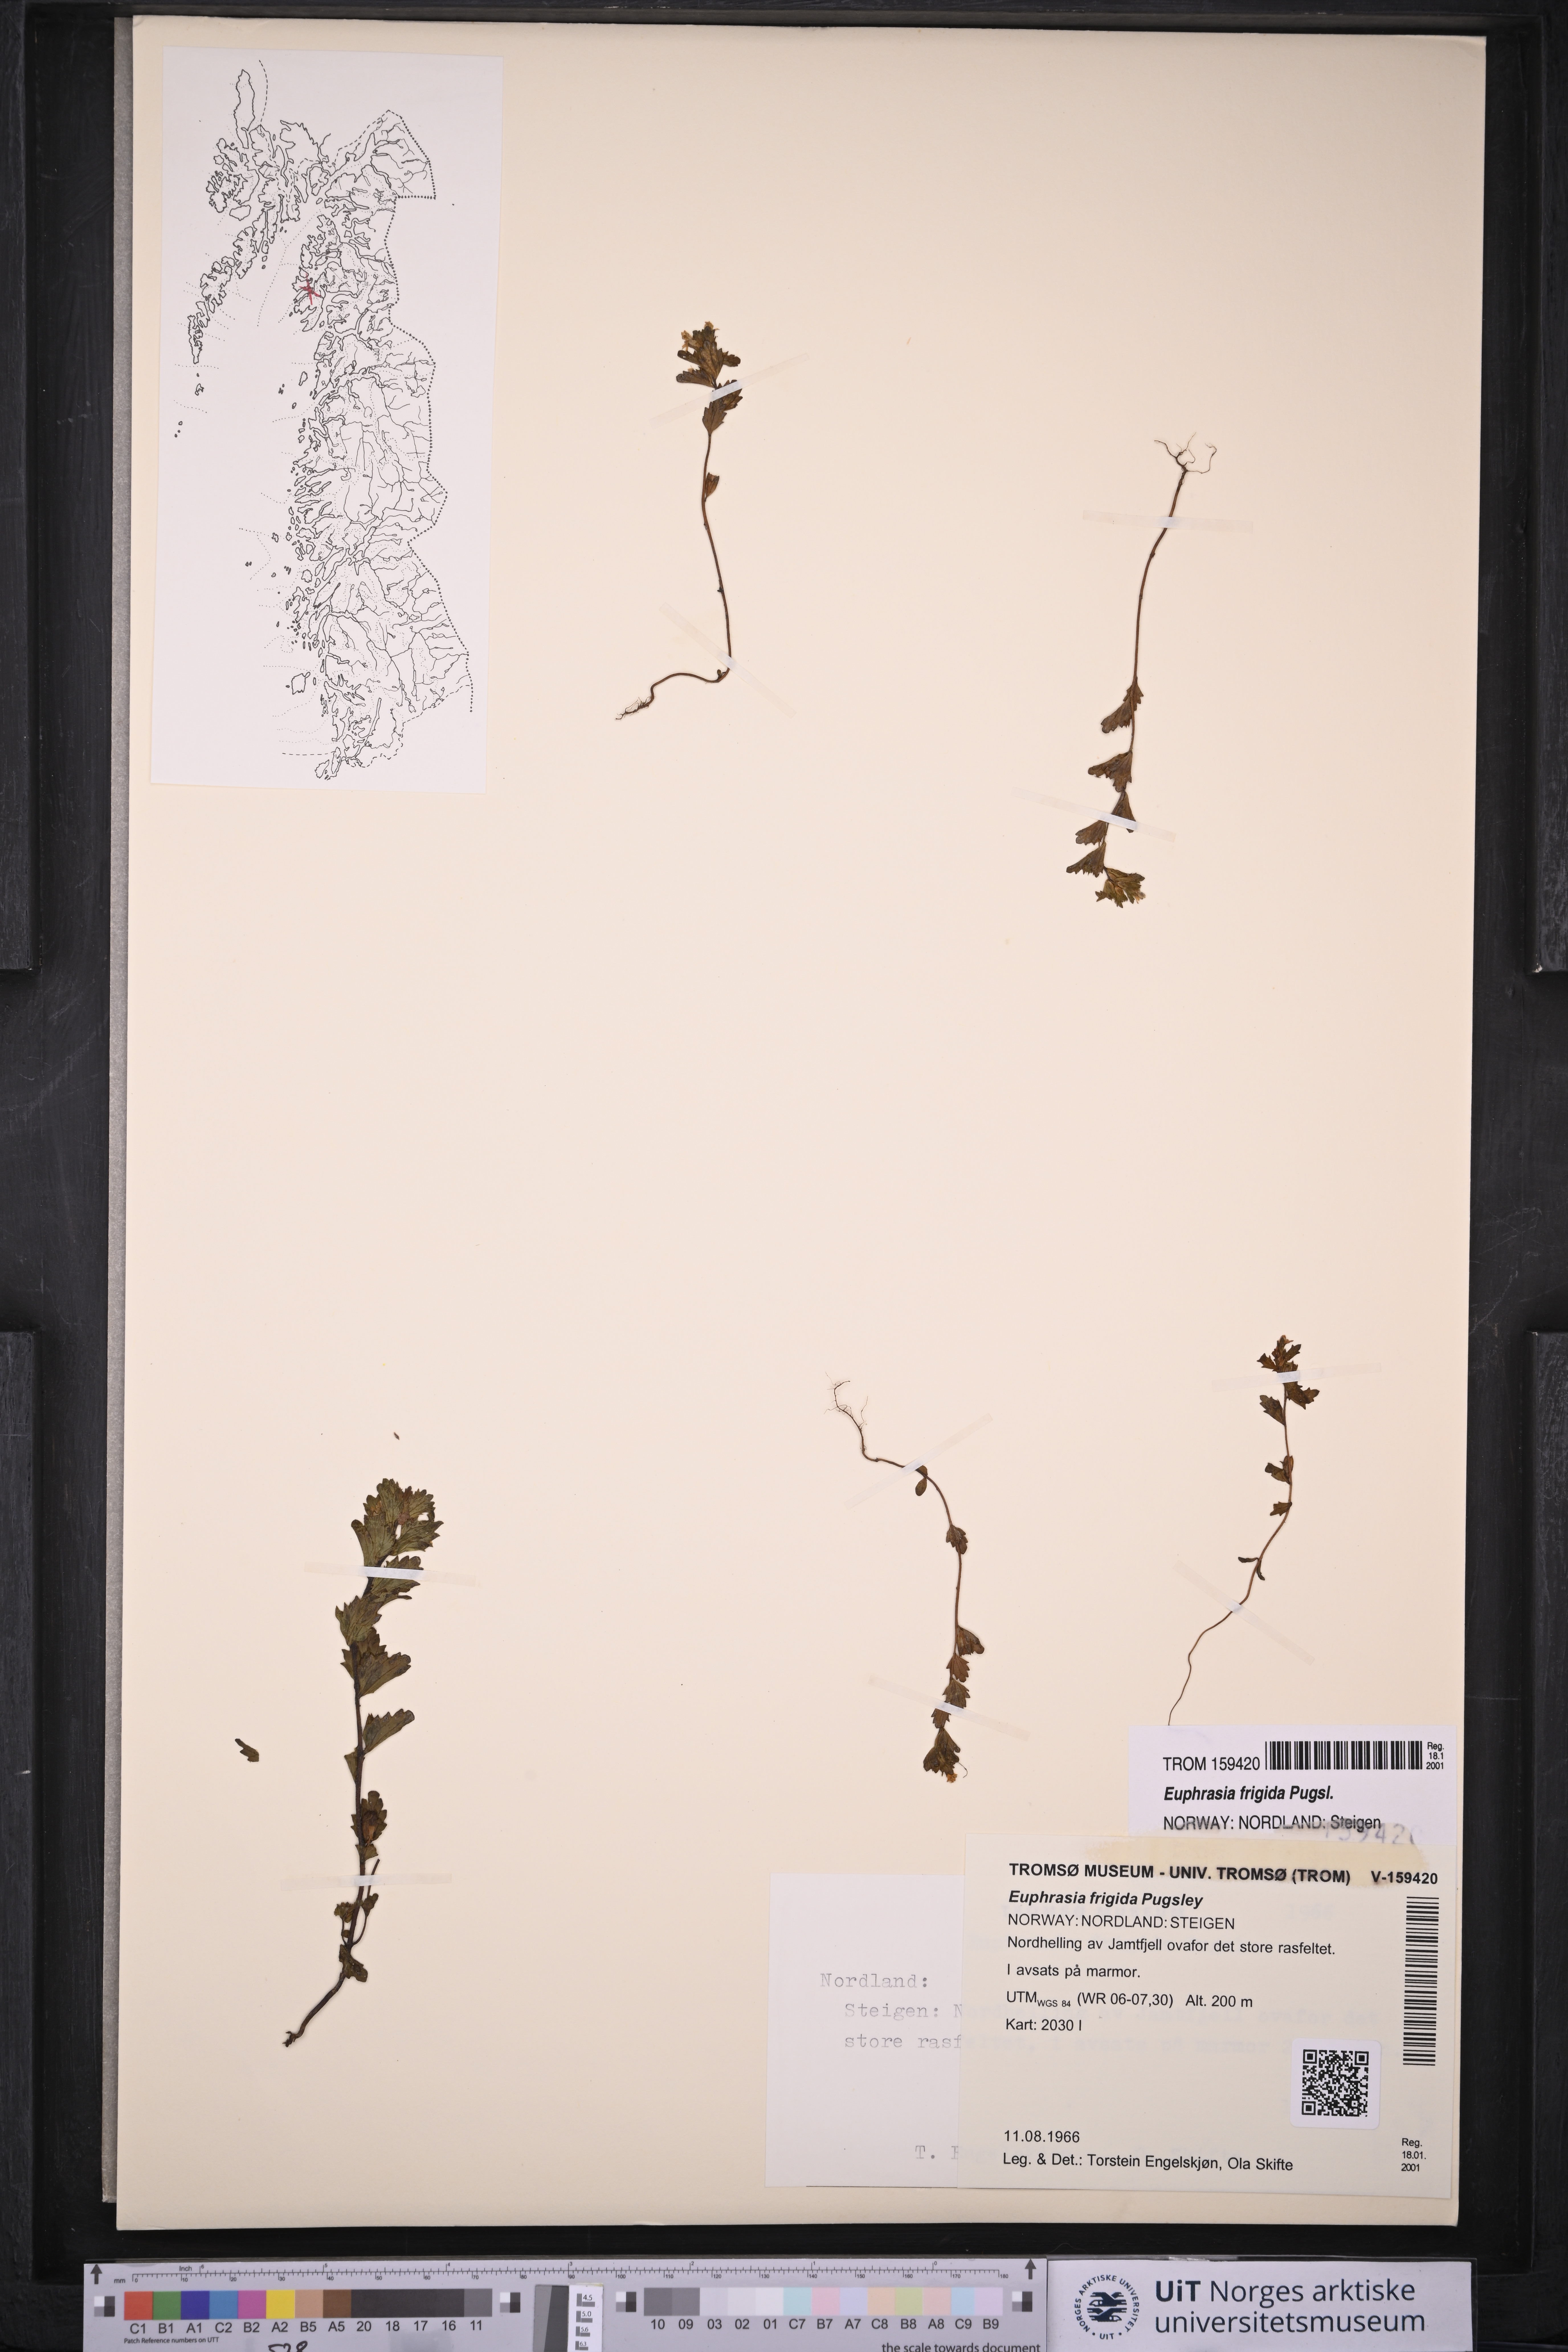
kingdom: Plantae
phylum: Tracheophyta
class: Magnoliopsida
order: Lamiales
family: Orobanchaceae
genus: Euphrasia
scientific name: Euphrasia frigida
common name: An eyebright
